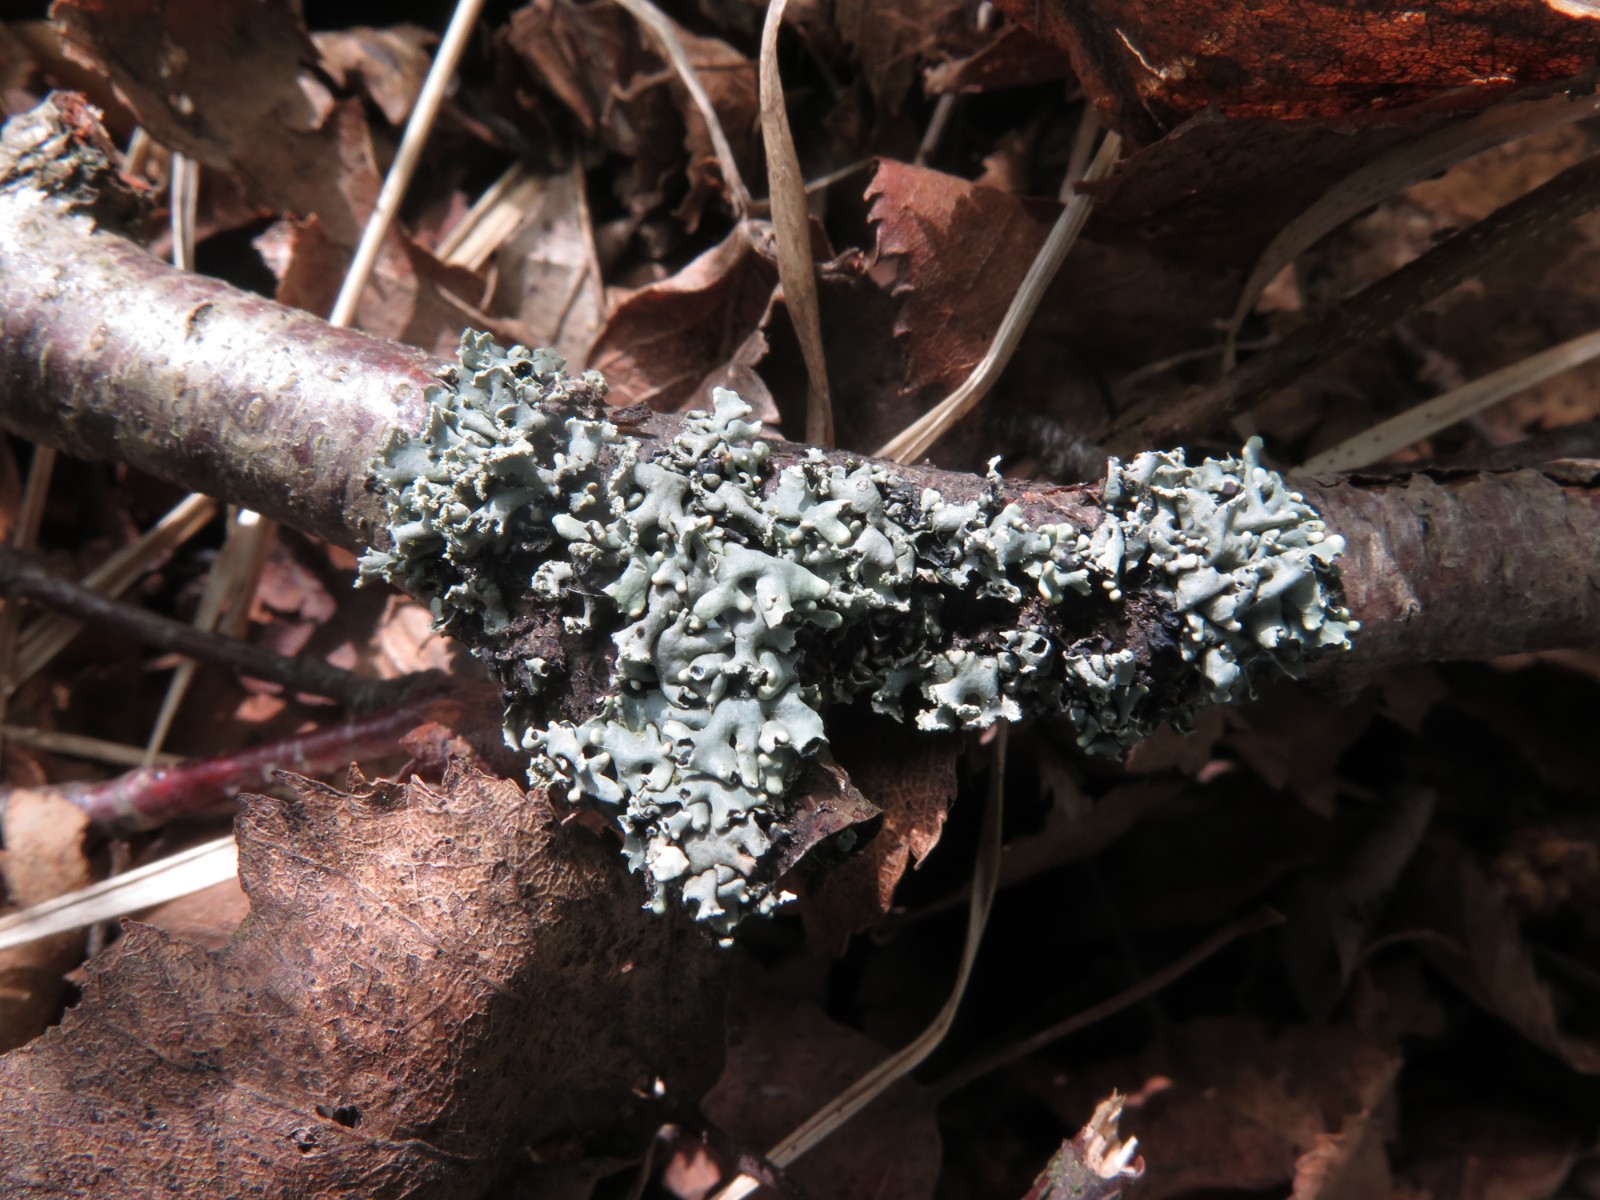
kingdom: Fungi
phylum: Ascomycota
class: Lecanoromycetes
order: Lecanorales
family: Parmeliaceae
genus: Hypogymnia
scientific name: Hypogymnia physodes
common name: almindelig kvistlav
